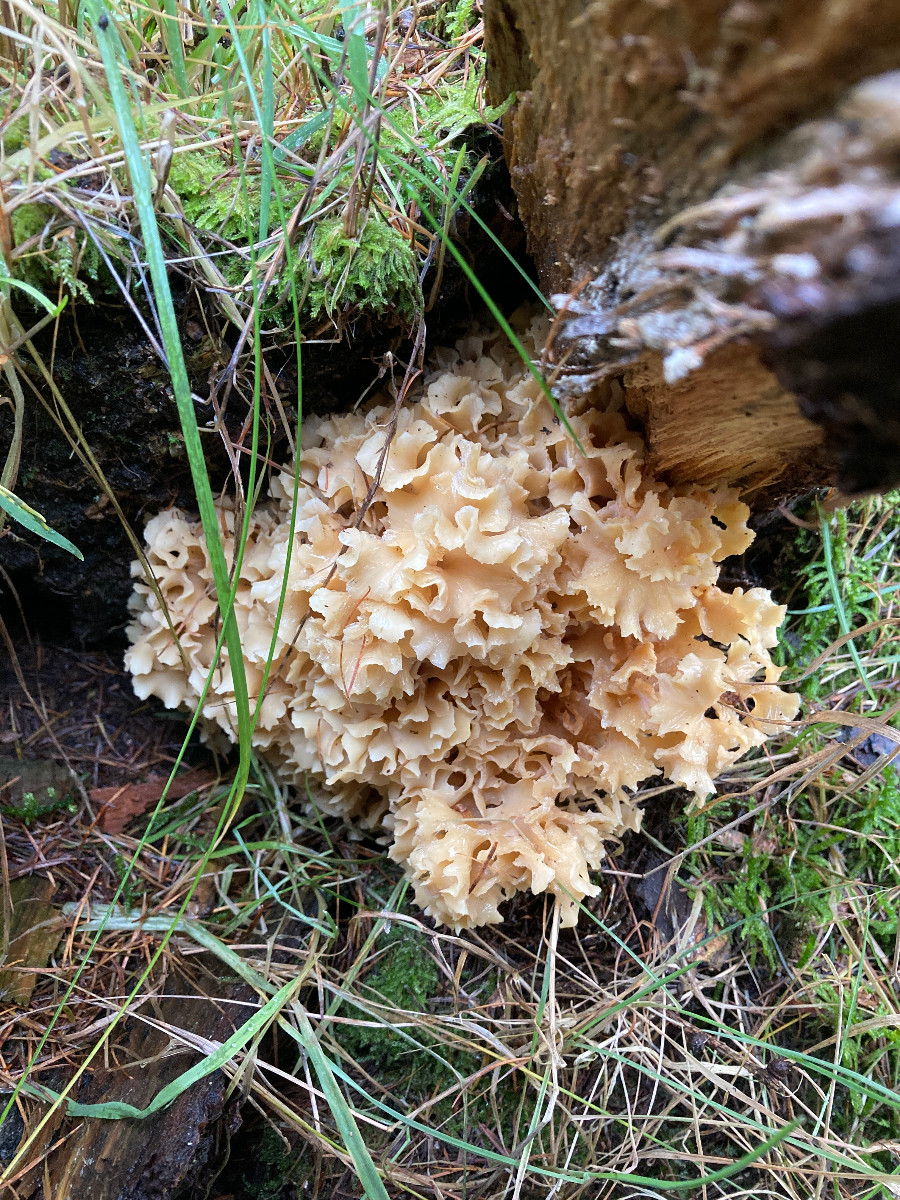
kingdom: Fungi
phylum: Basidiomycota
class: Agaricomycetes
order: Polyporales
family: Sparassidaceae
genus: Sparassis
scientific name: Sparassis crispa
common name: kruset blomkålssvamp
